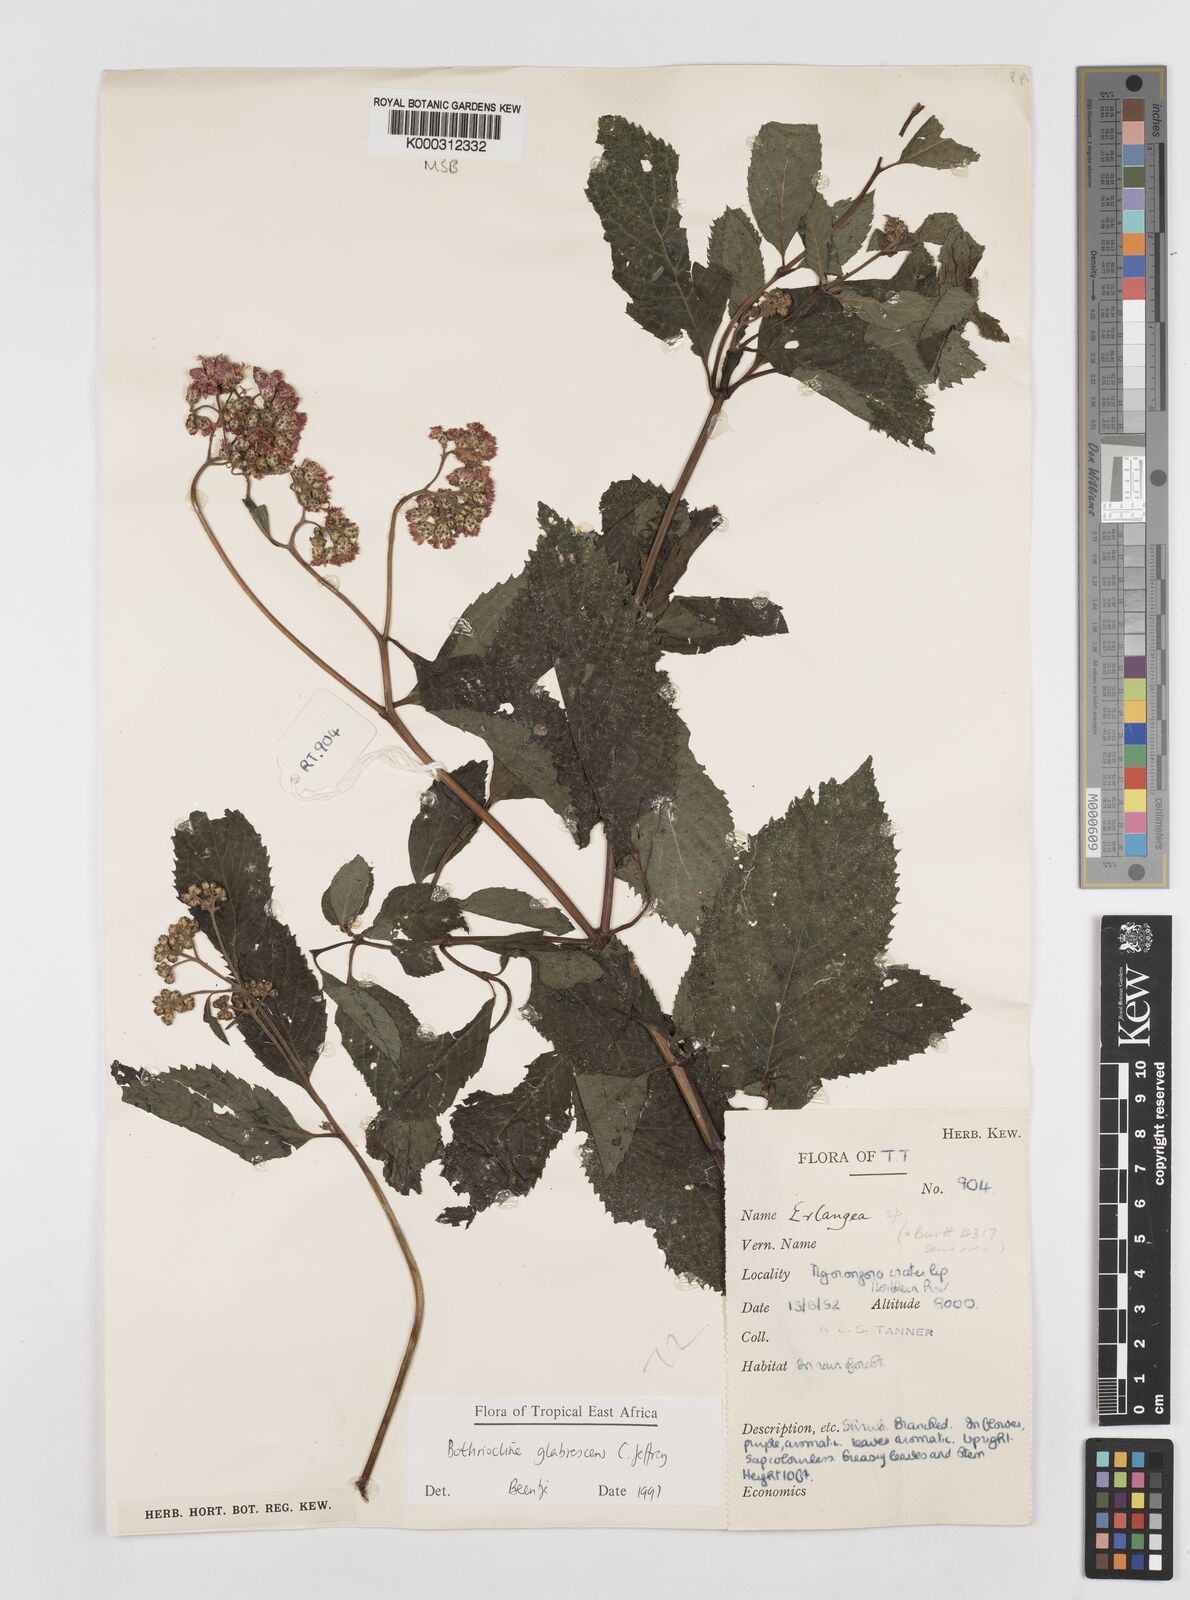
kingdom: Plantae
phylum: Tracheophyta
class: Magnoliopsida
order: Asterales
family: Asteraceae
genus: Bothriocline
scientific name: Bothriocline glabrescens
